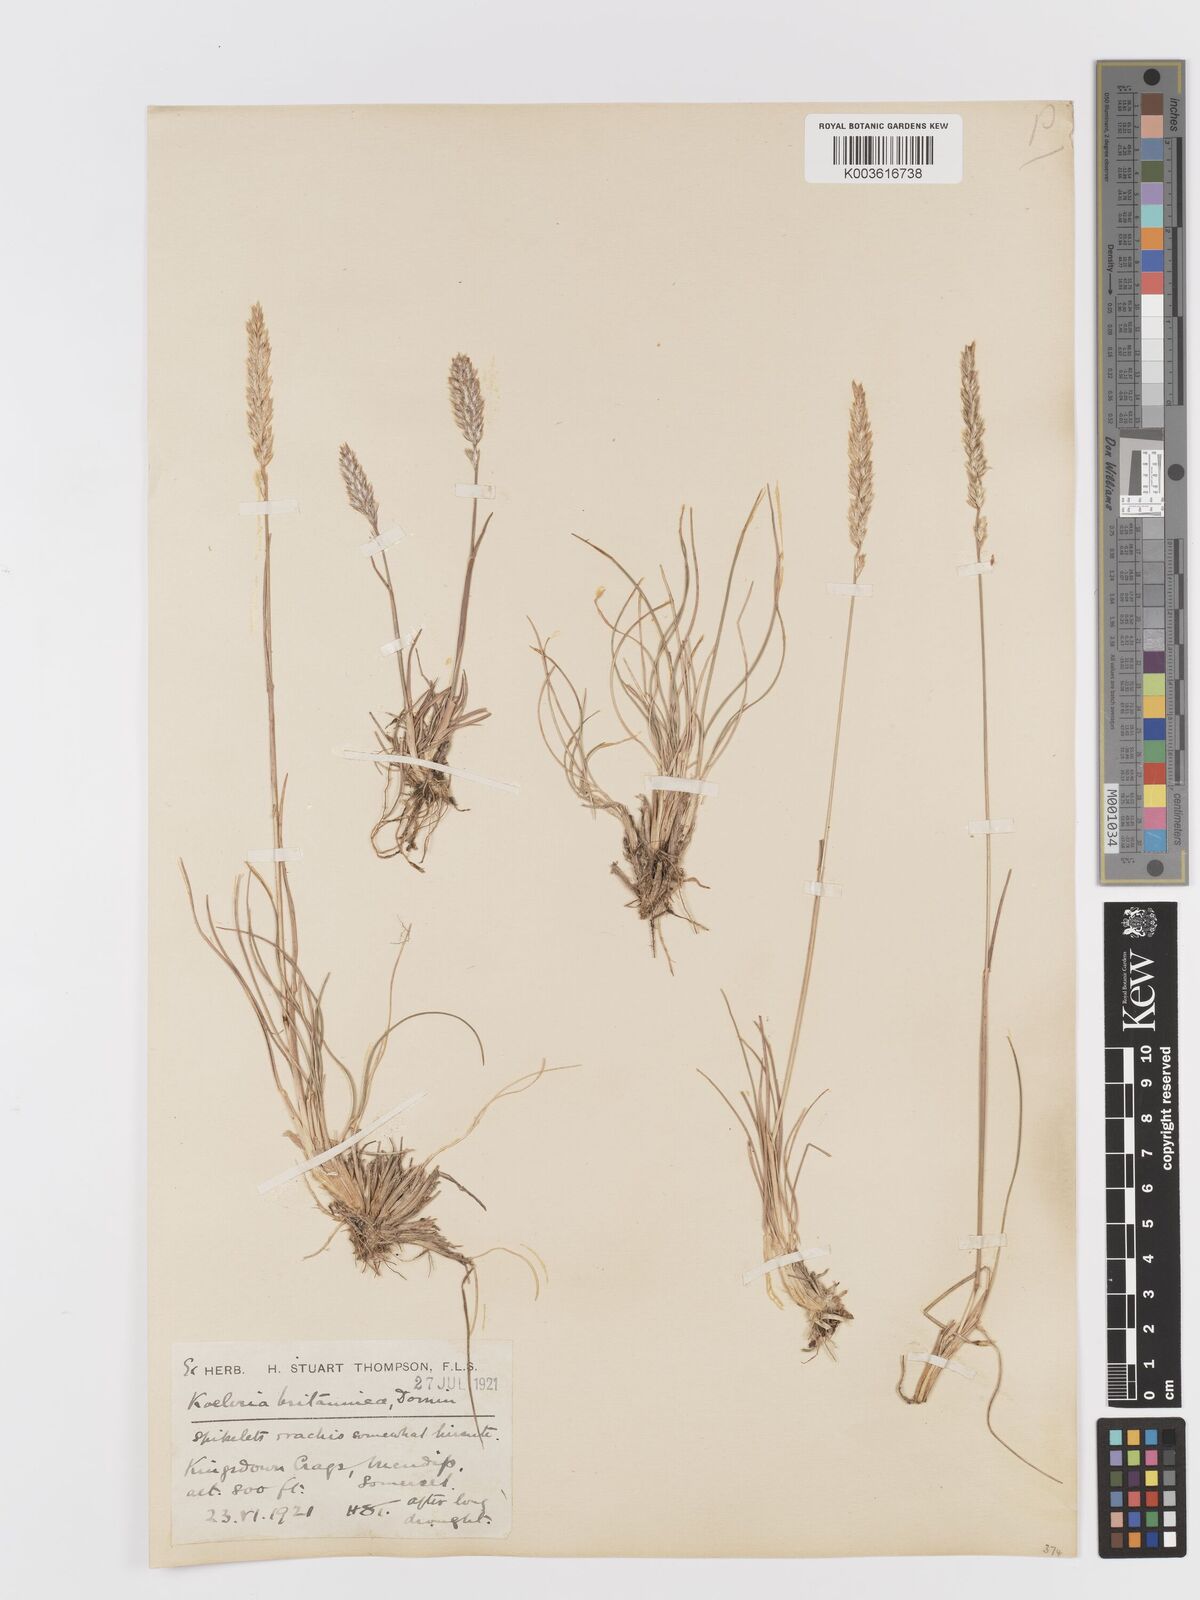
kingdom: Plantae
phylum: Tracheophyta
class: Liliopsida
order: Poales
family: Poaceae
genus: Koeleria
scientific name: Koeleria
